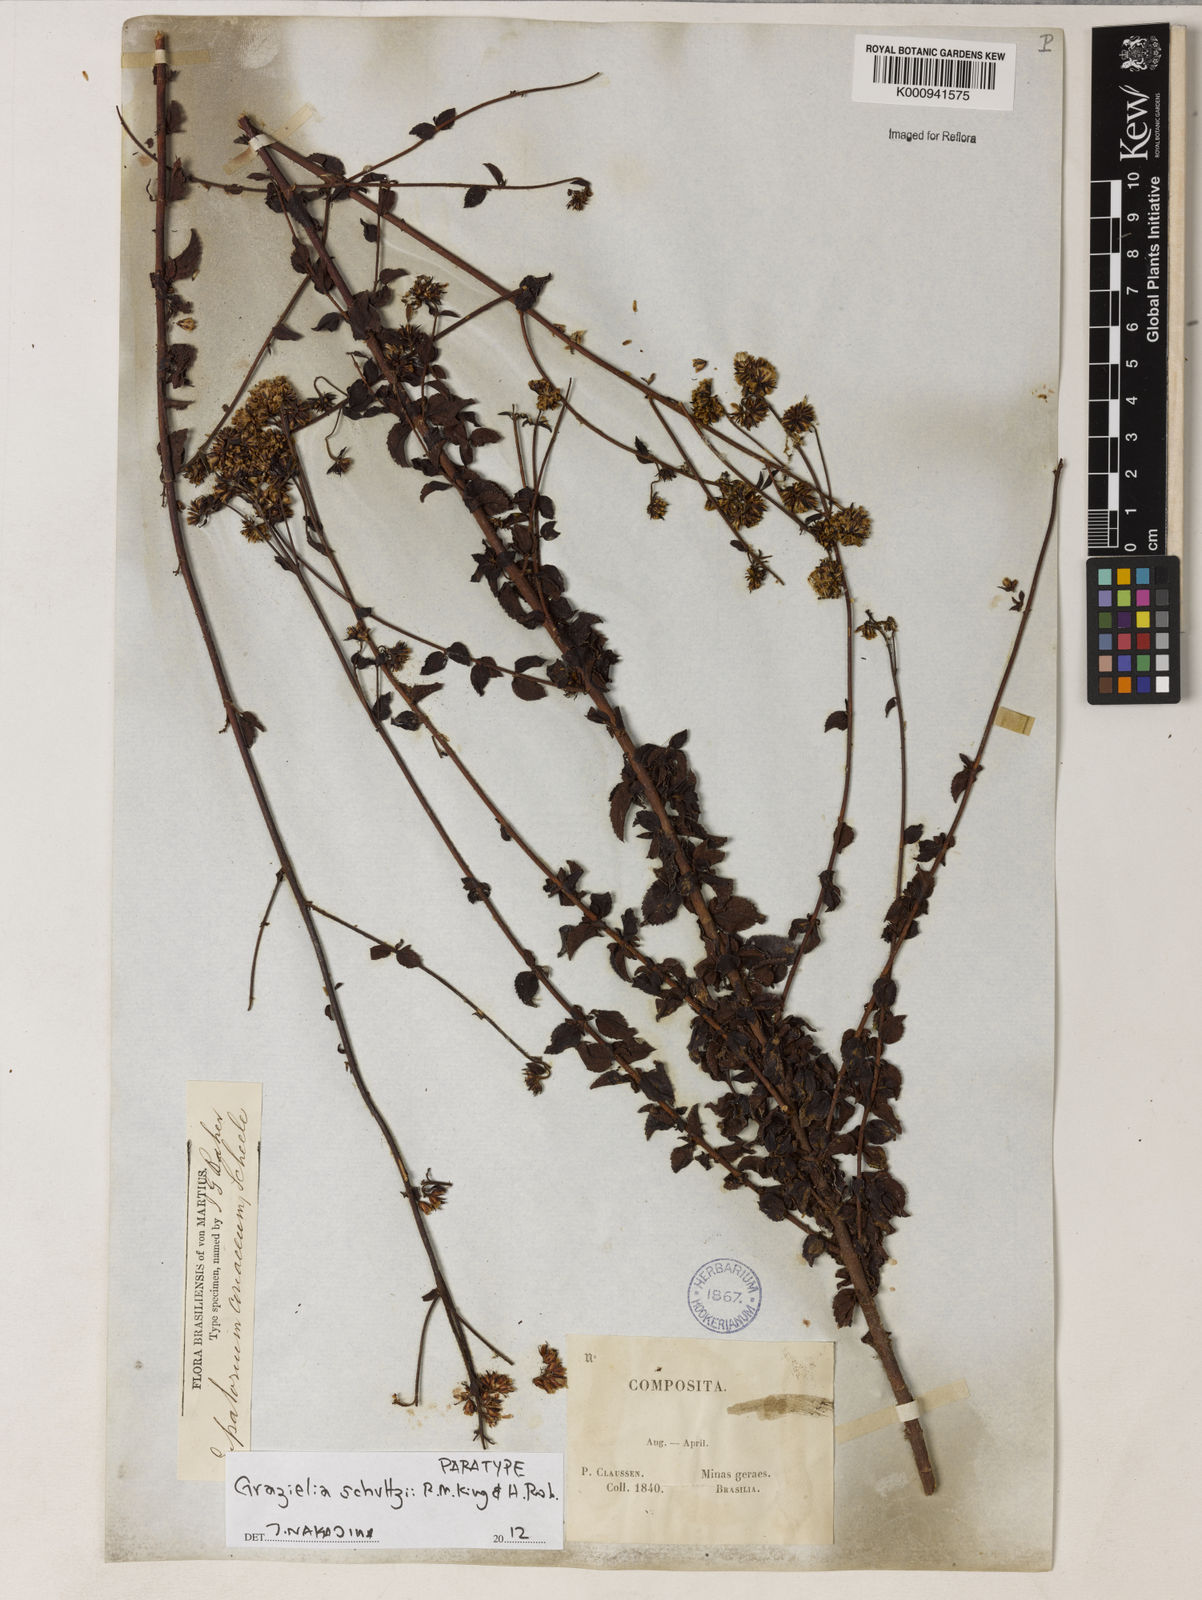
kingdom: Plantae
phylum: Tracheophyta
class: Magnoliopsida
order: Asterales
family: Asteraceae
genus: Grazielia
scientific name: Grazielia
